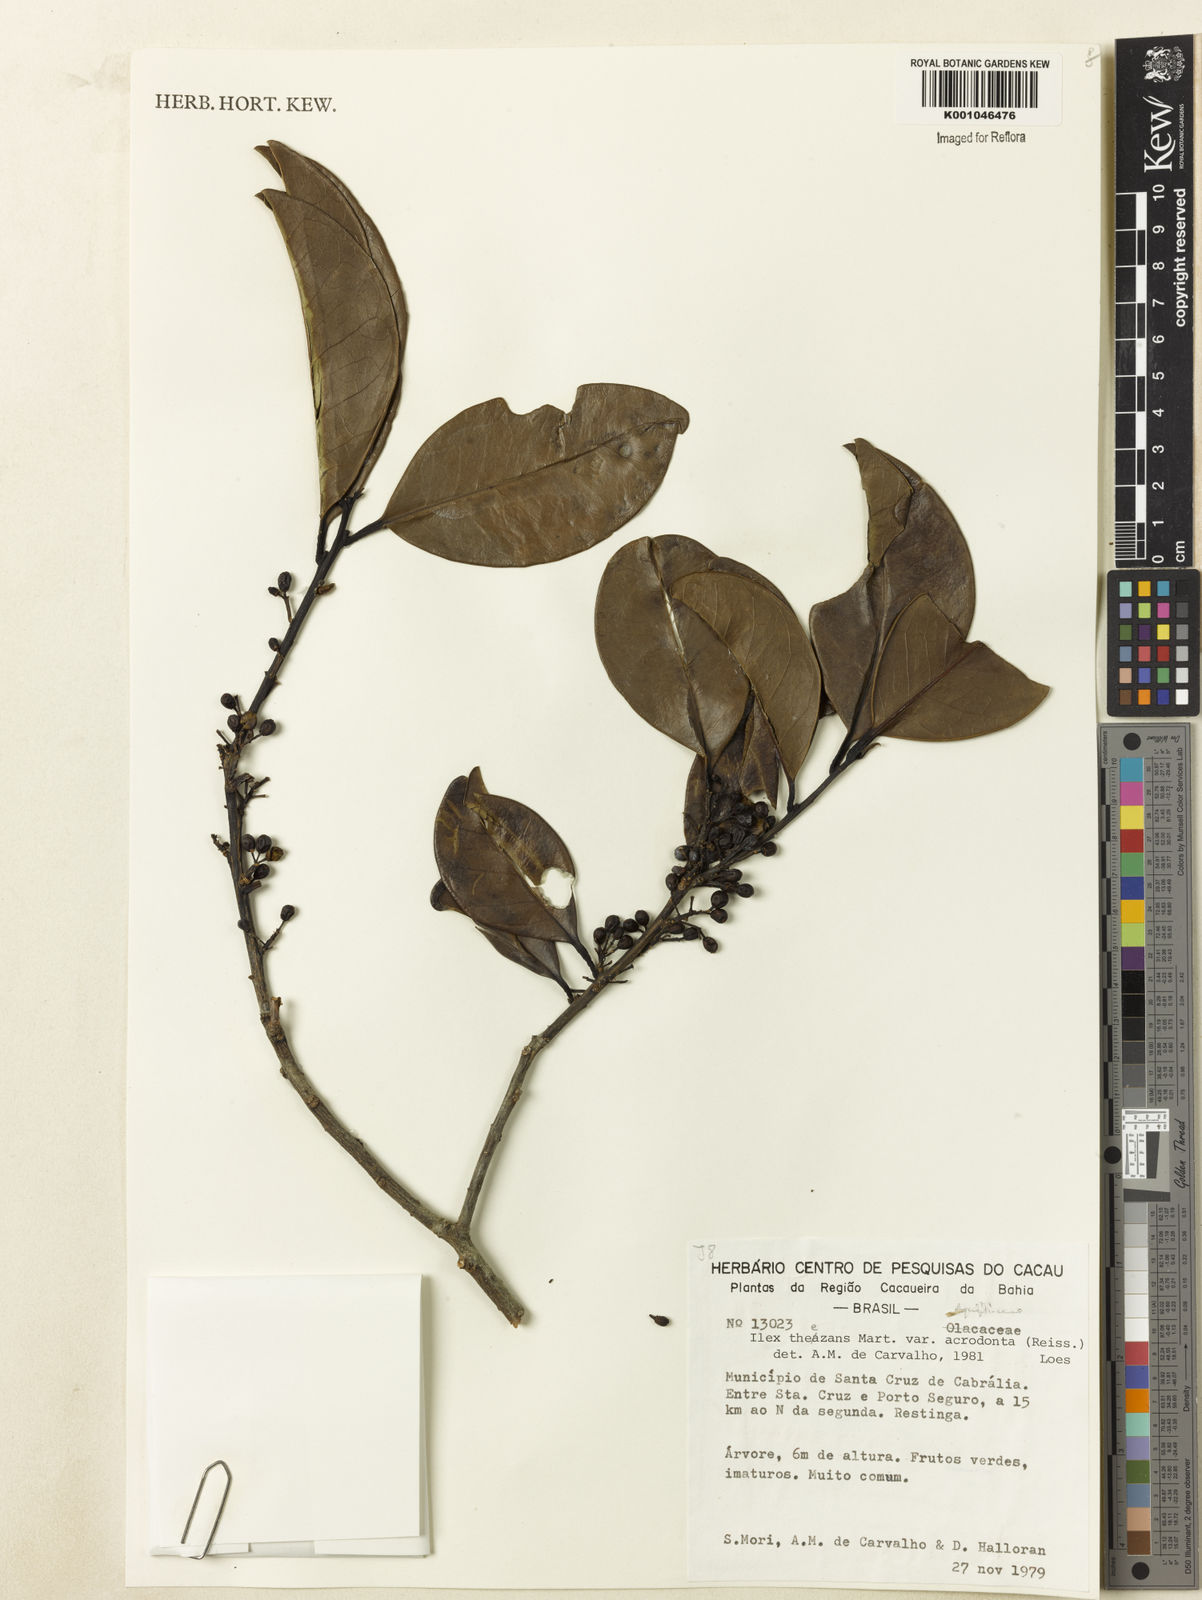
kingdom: Plantae
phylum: Tracheophyta
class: Magnoliopsida
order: Aquifoliales
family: Aquifoliaceae
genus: Ilex
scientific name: Ilex paraguariensis
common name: Paraguay tea
